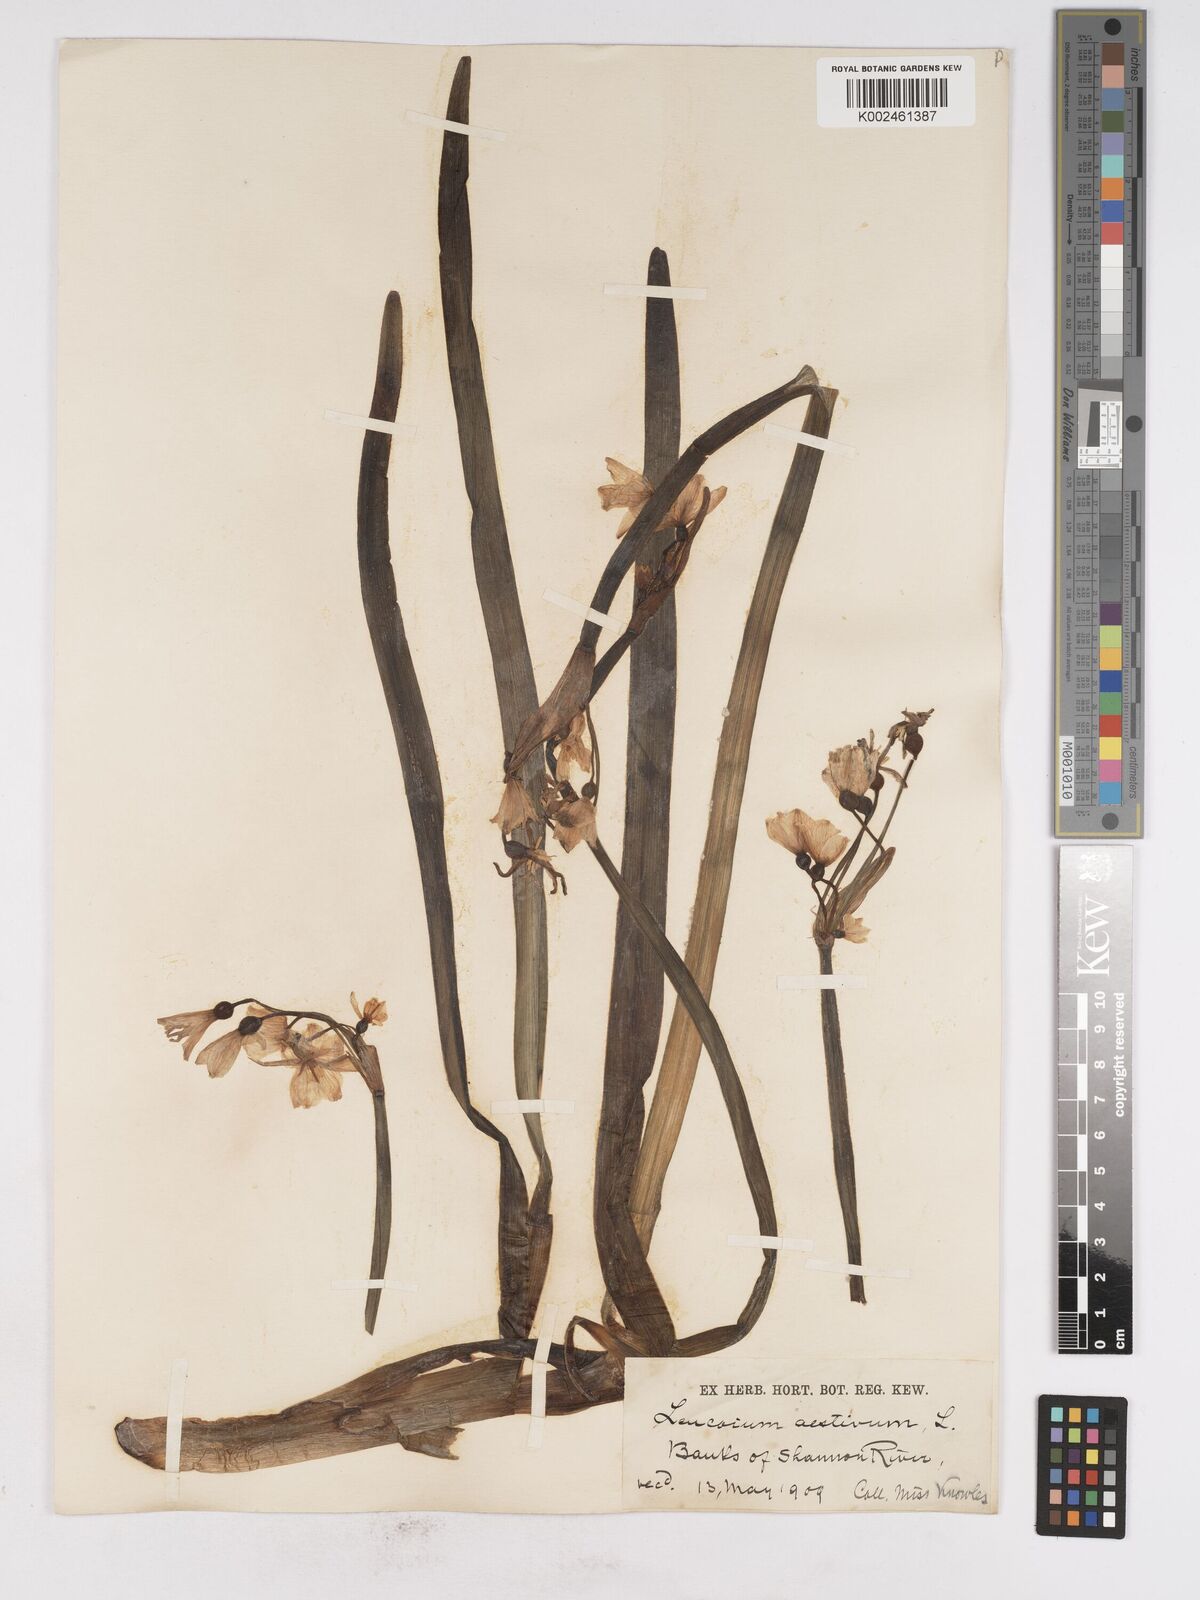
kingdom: Plantae
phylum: Tracheophyta
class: Liliopsida
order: Asparagales
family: Amaryllidaceae
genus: Leucojum
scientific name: Leucojum aestivum
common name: Summer snowflake
